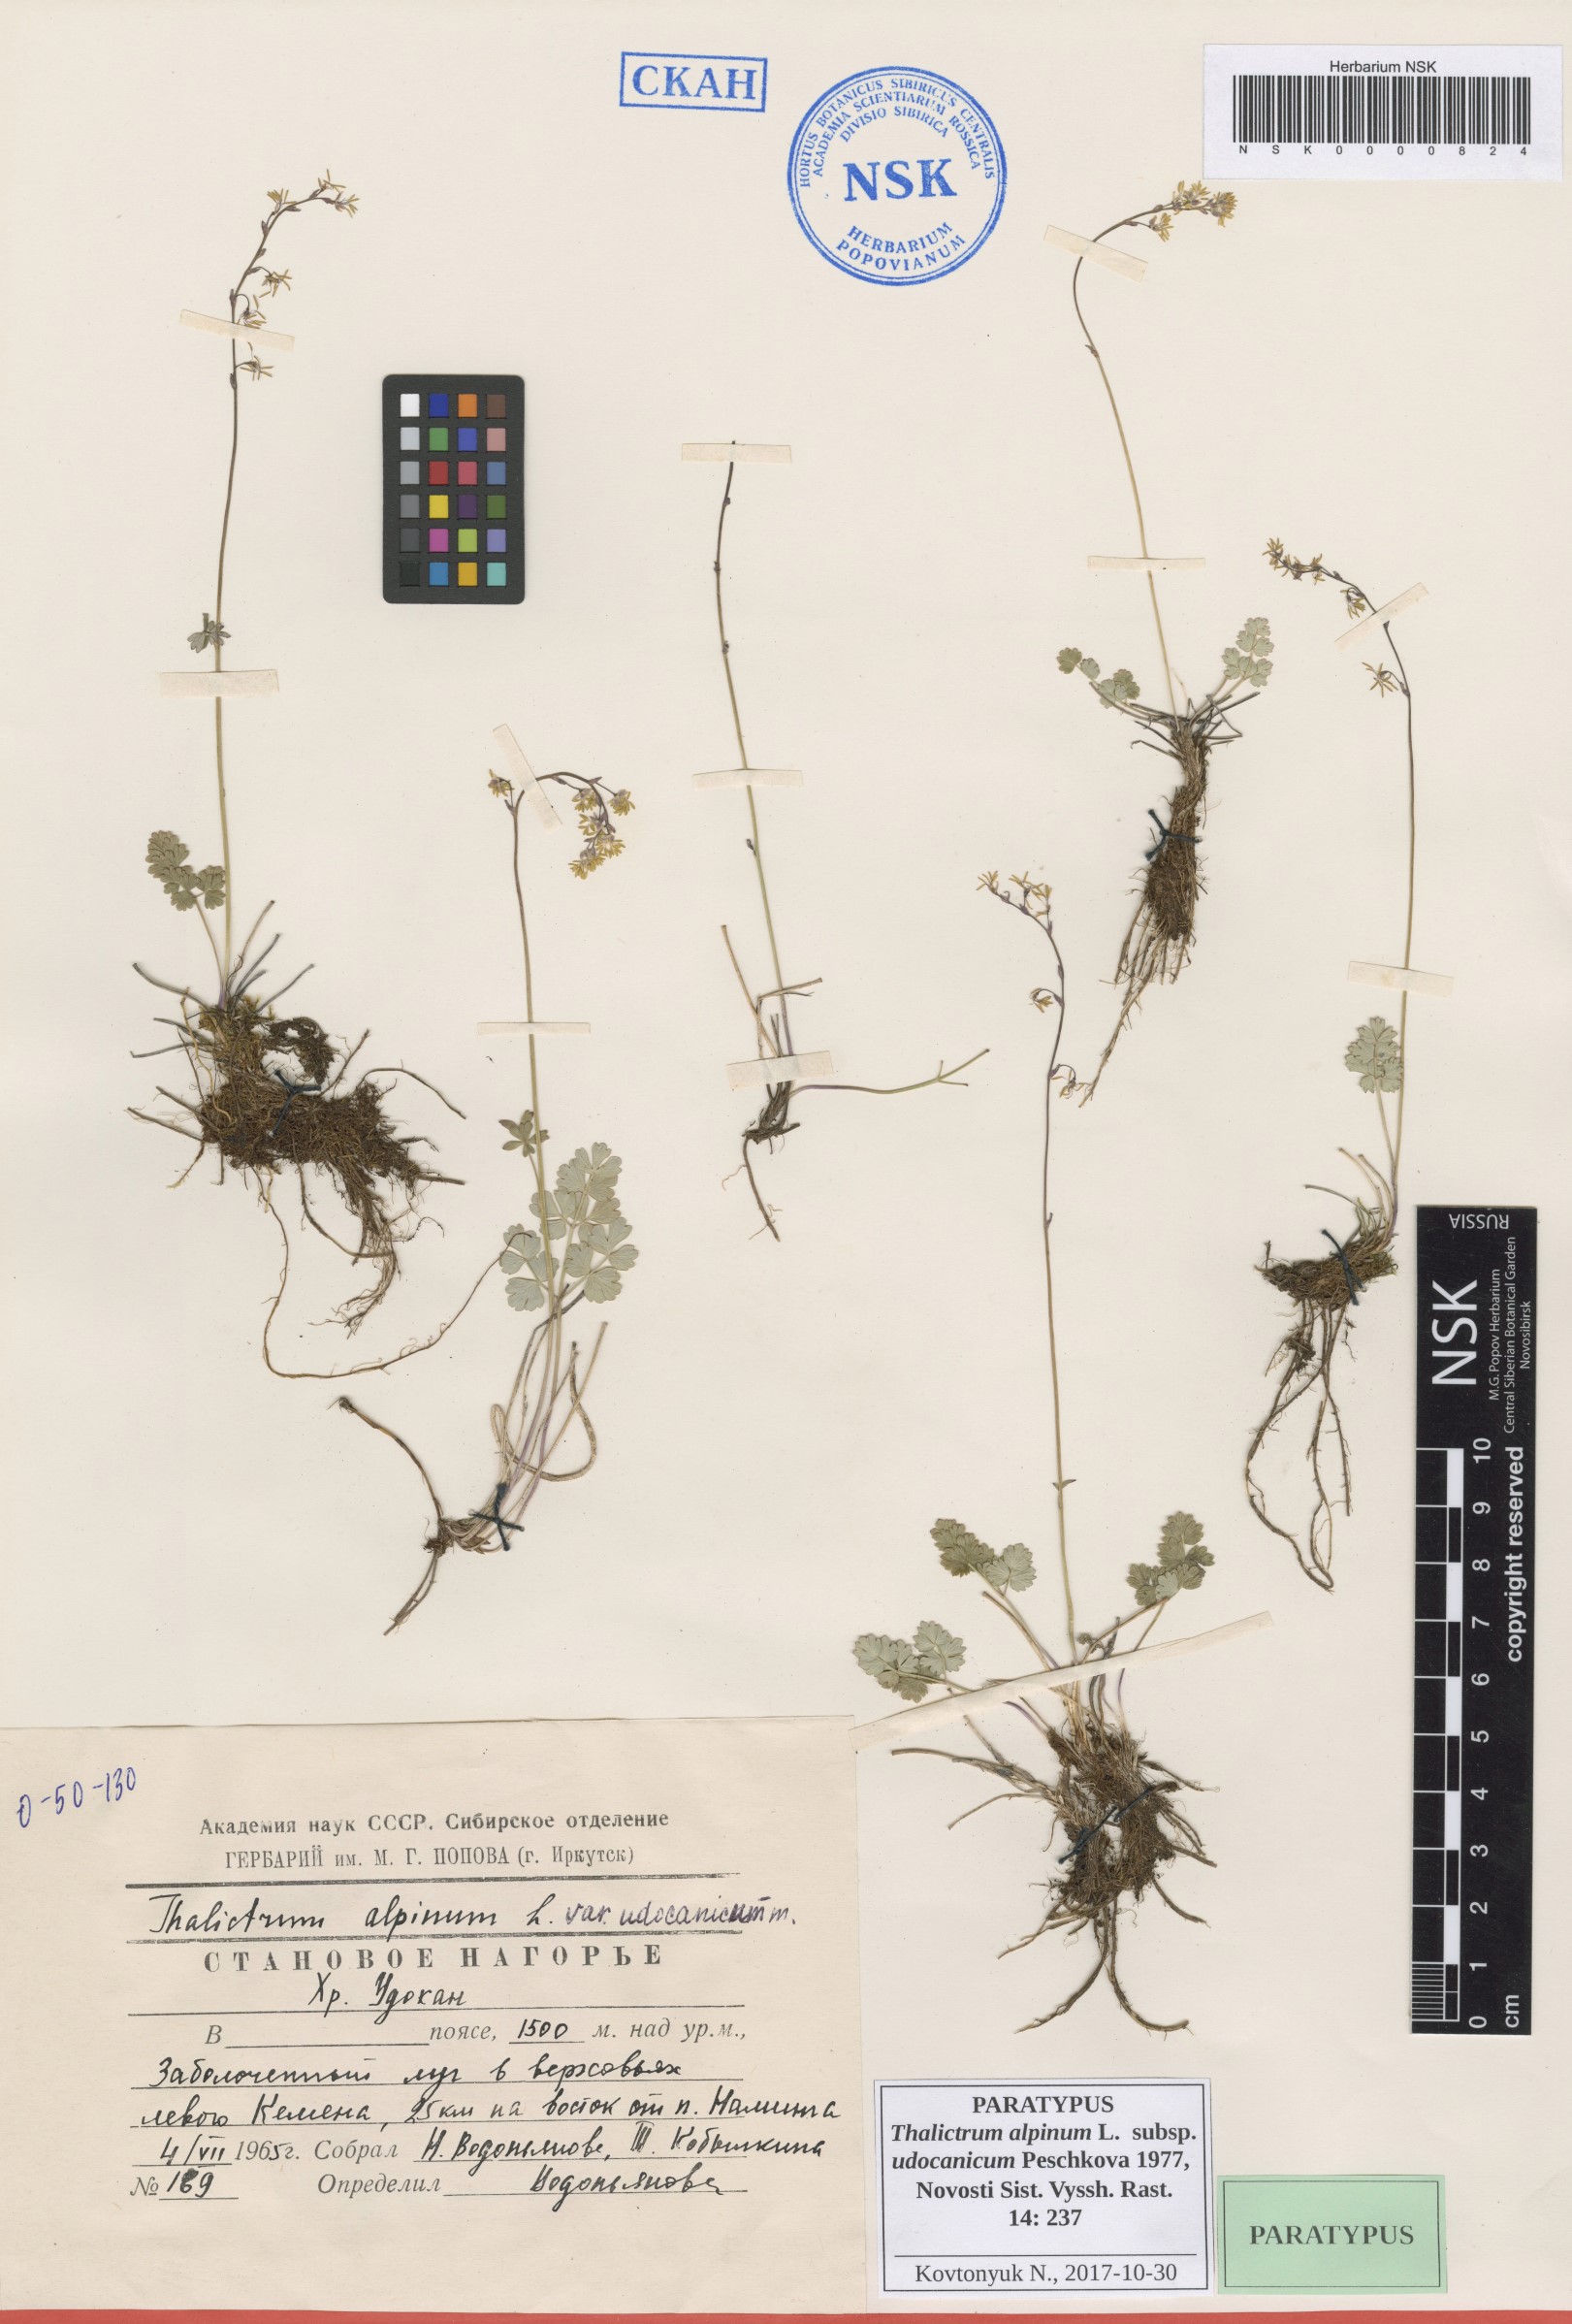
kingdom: Plantae
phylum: Tracheophyta
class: Magnoliopsida
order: Ranunculales
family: Ranunculaceae
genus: Thalictrum
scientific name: Thalictrum alpinum
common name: Alpine meadow-rue
